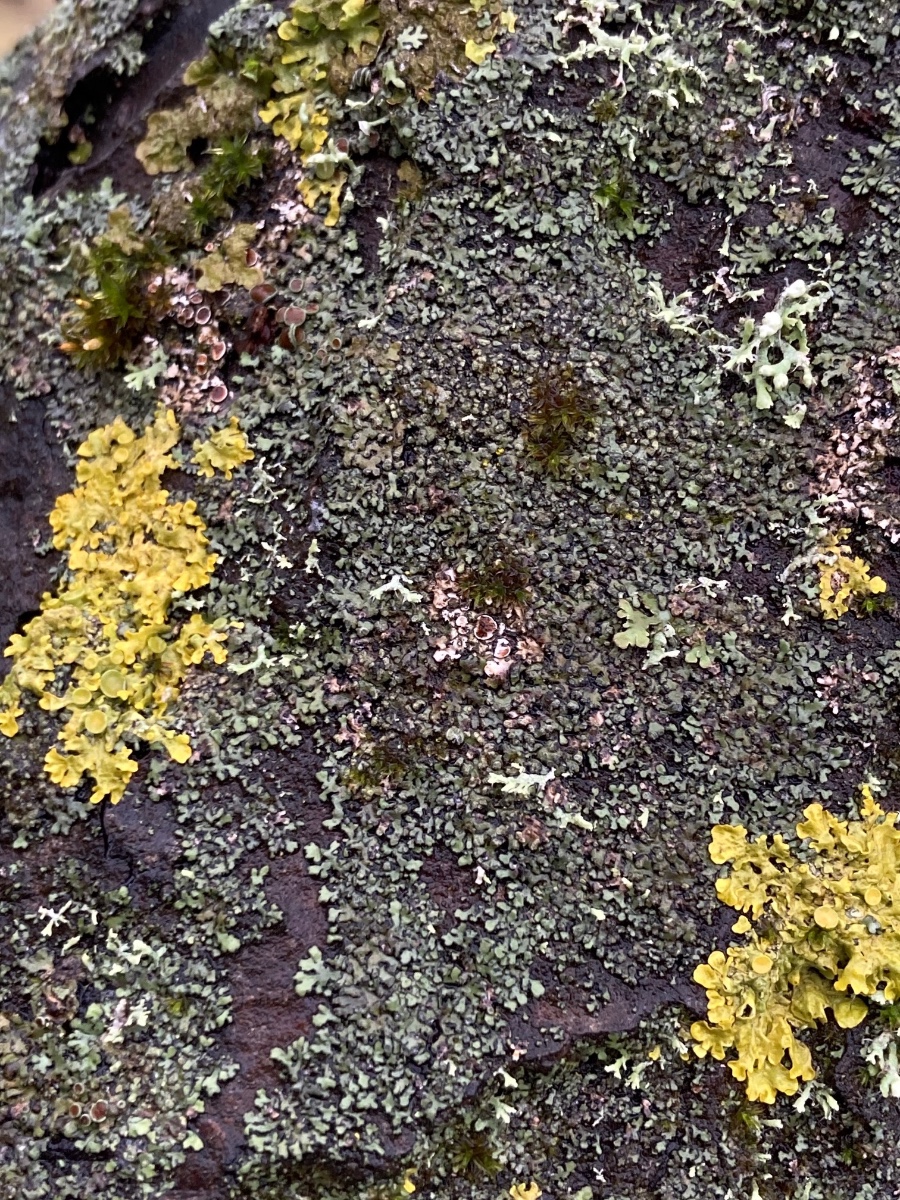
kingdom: Fungi
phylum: Ascomycota
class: Lecanoromycetes
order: Caliciales
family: Physciaceae
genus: Phaeophyscia
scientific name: Phaeophyscia orbicularis
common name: grågrøn rosetlav
